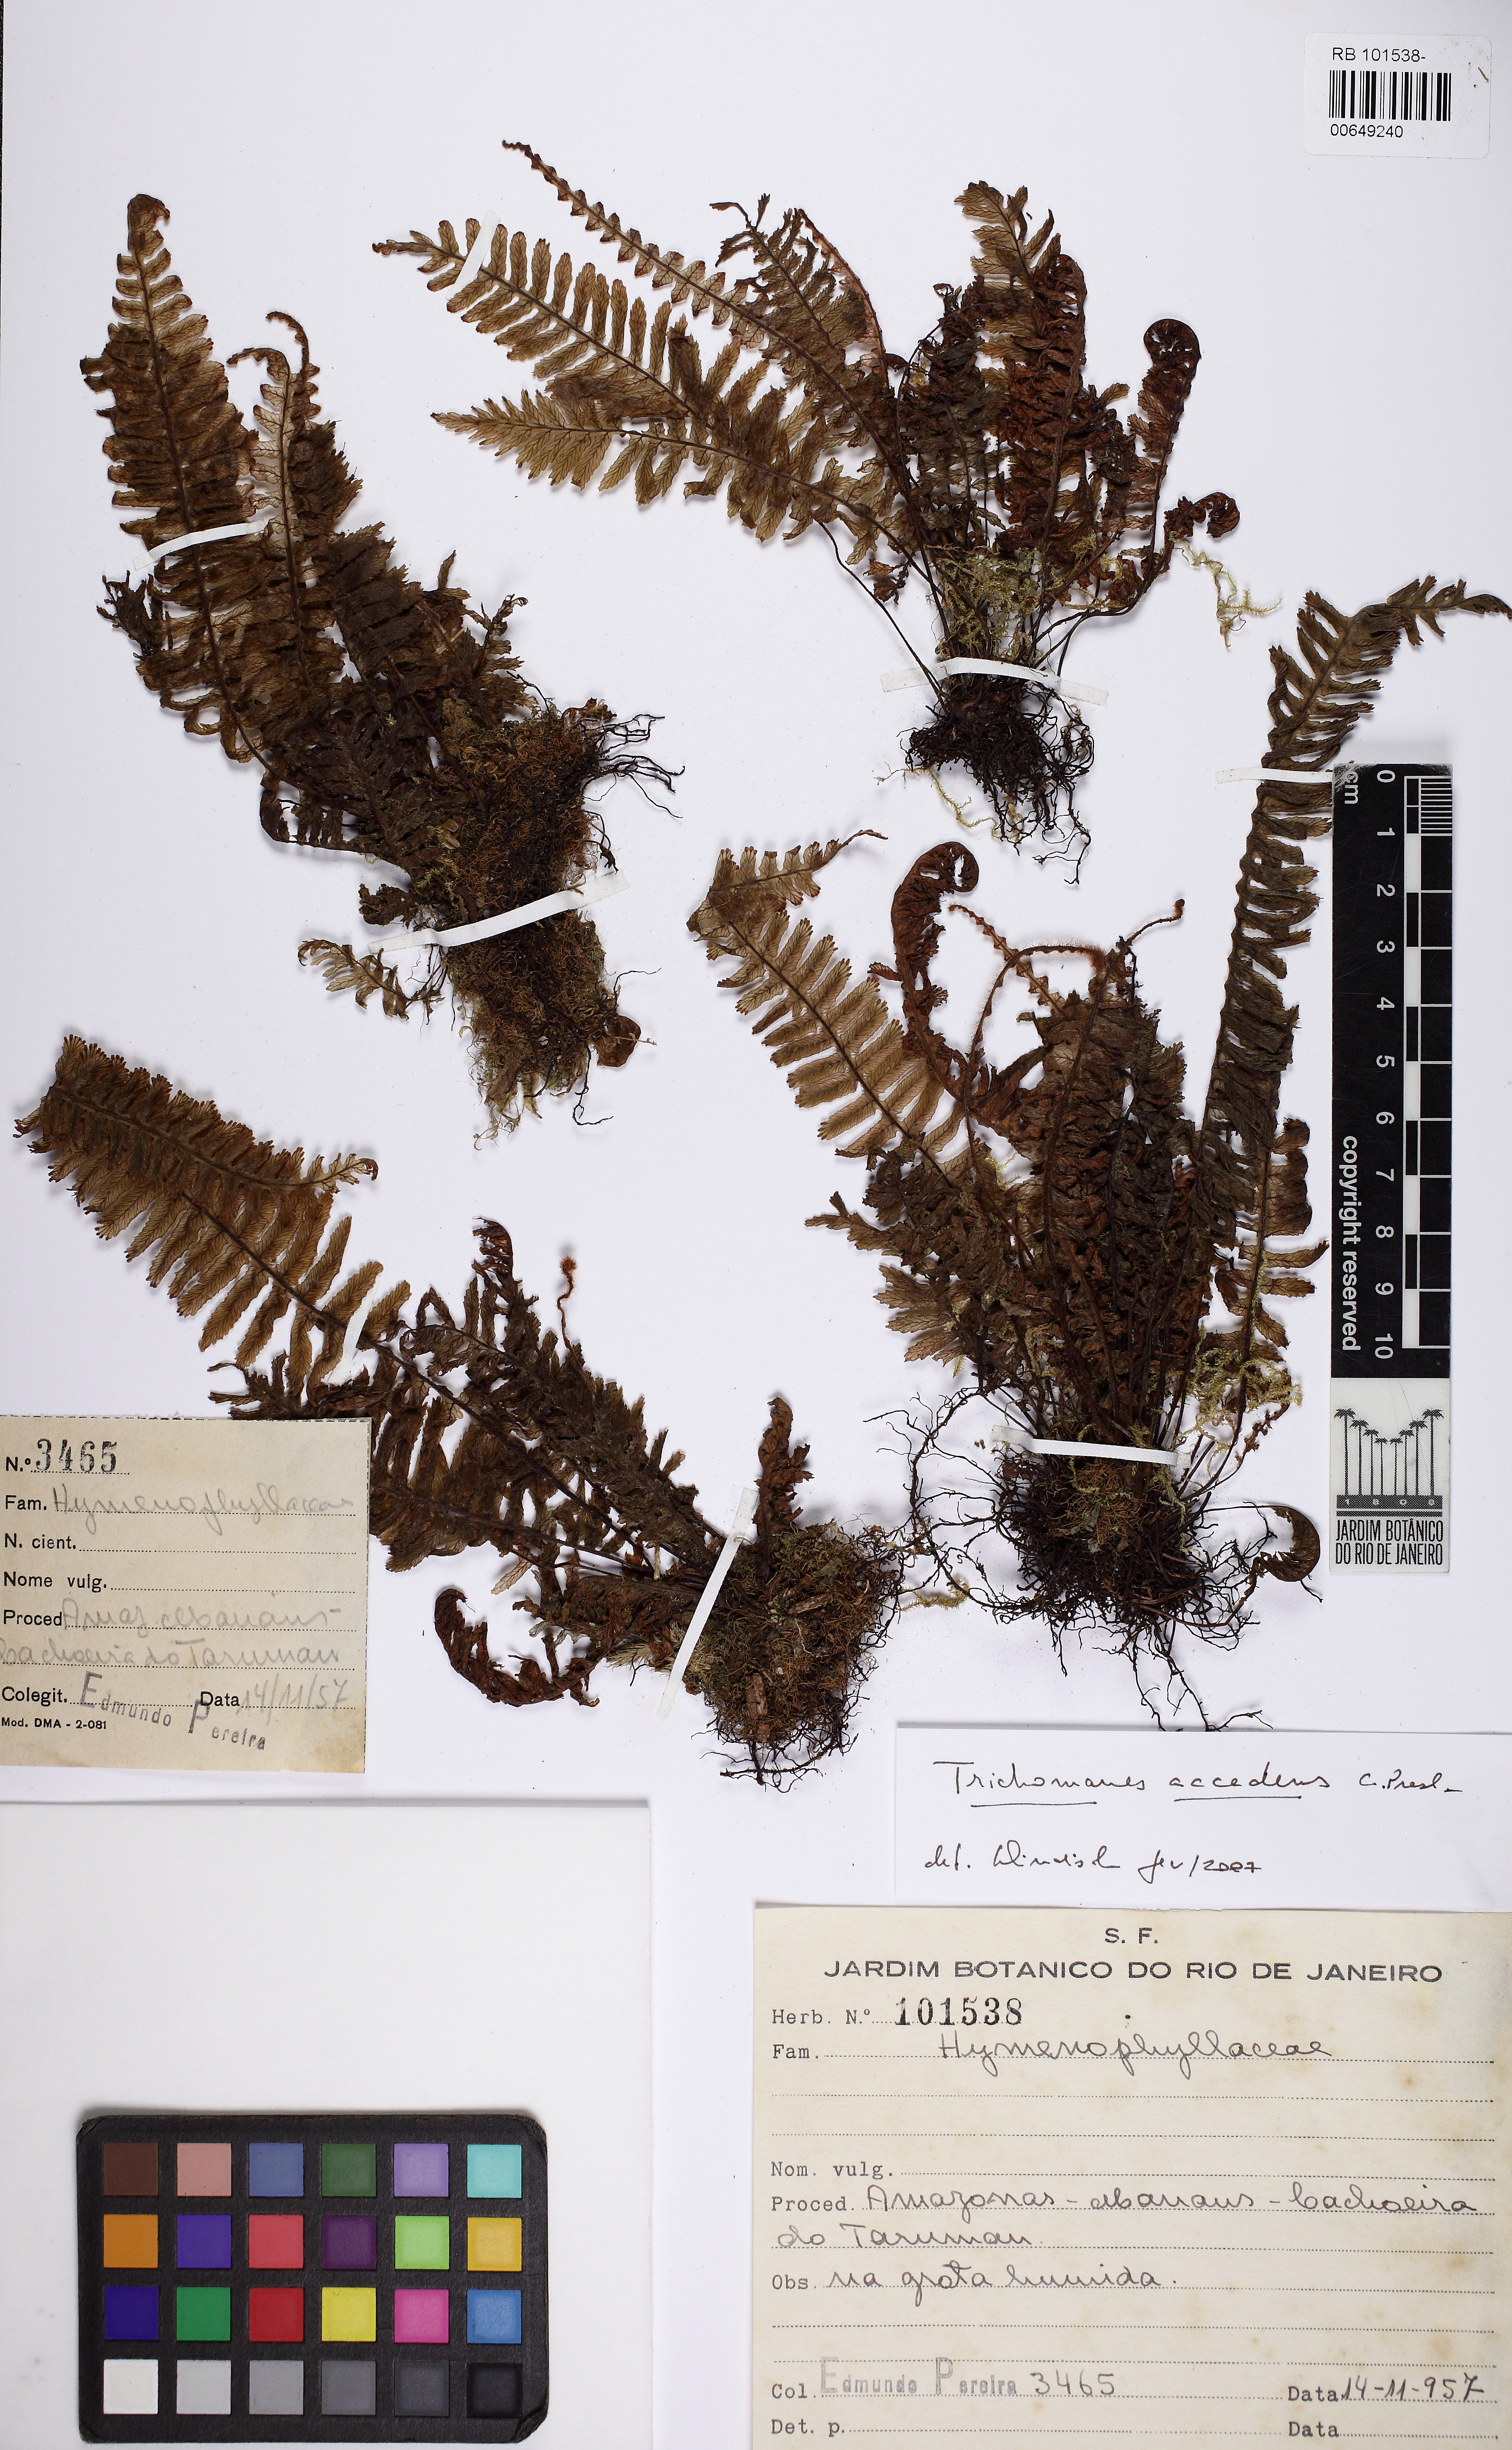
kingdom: Plantae
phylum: Tracheophyta
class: Polypodiopsida
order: Hymenophyllales
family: Hymenophyllaceae
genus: Trichomanes
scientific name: Trichomanes accedens
